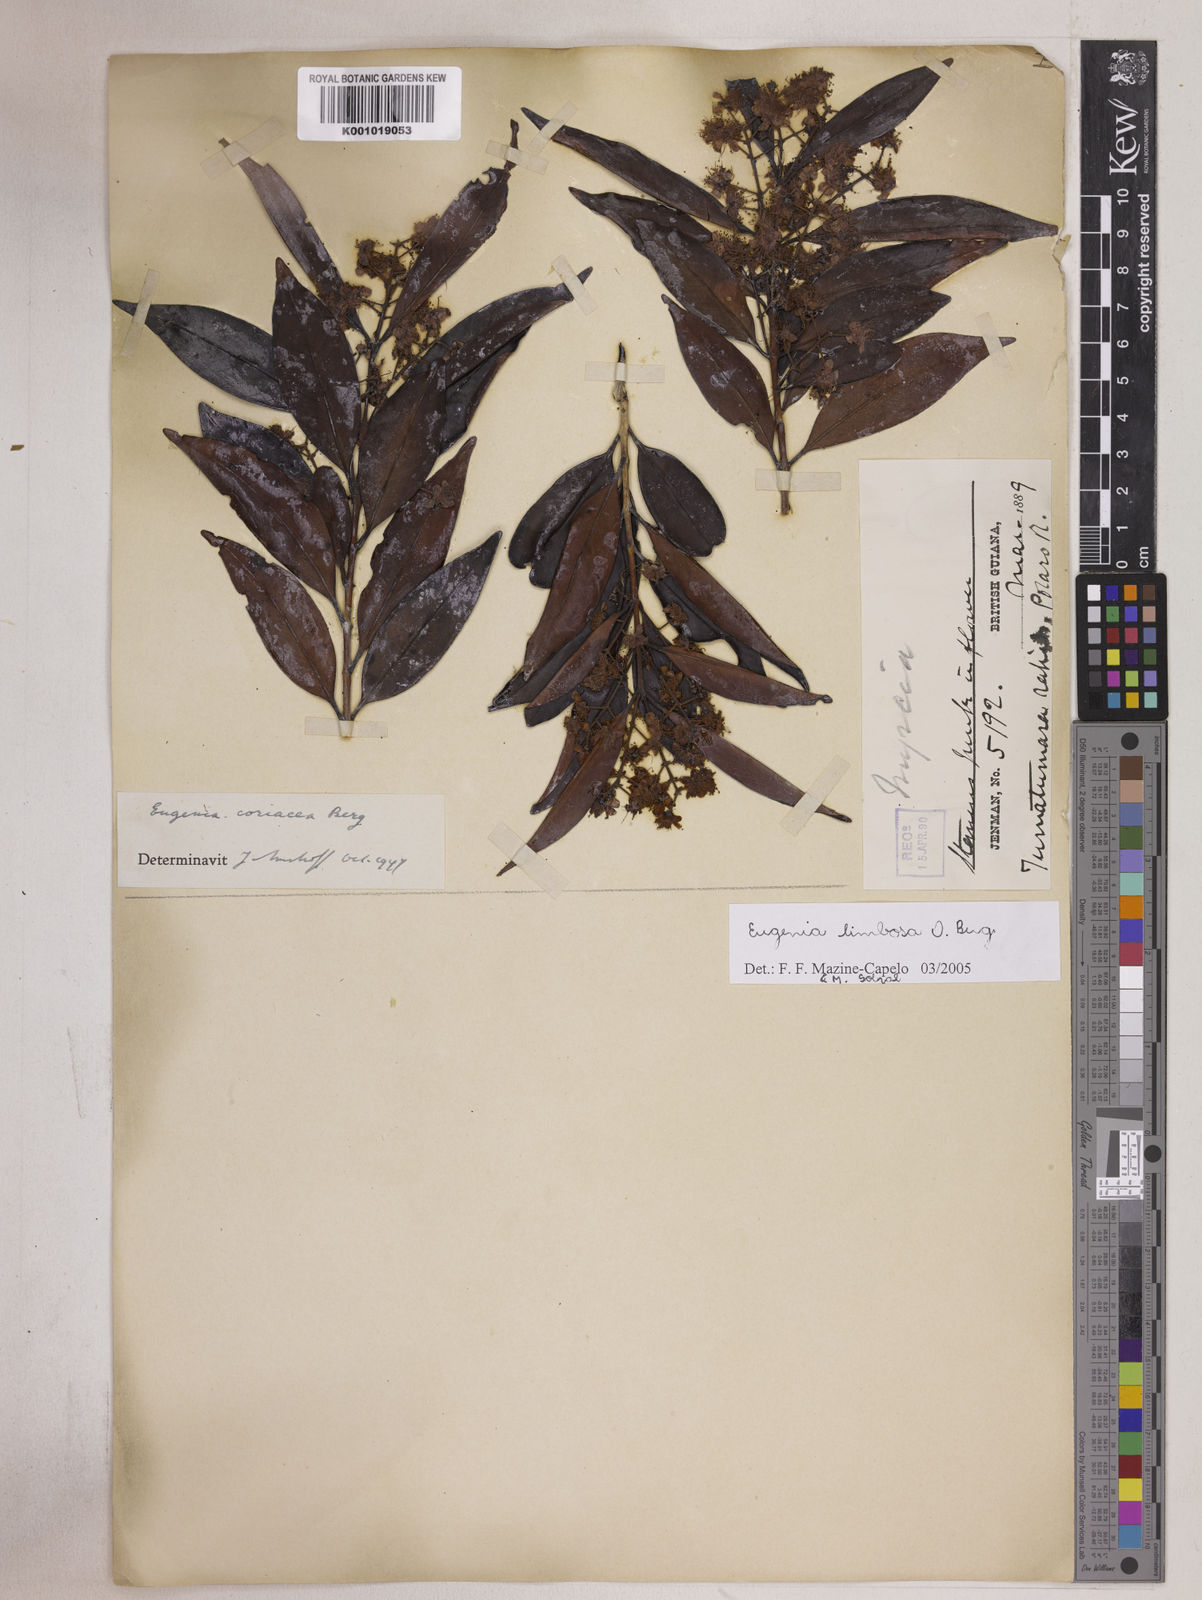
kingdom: Plantae
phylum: Tracheophyta
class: Magnoliopsida
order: Myrtales
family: Myrtaceae
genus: Eugenia
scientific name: Eugenia limbosa
